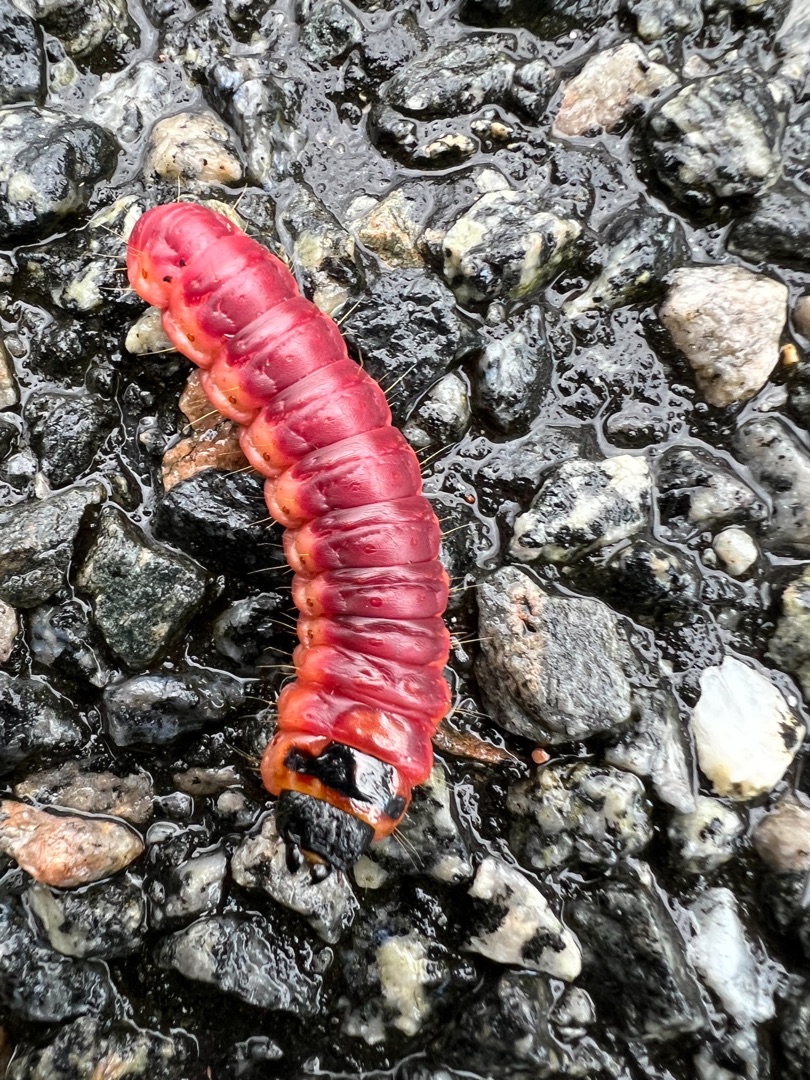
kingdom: Animalia
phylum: Arthropoda
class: Insecta
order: Lepidoptera
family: Cossidae
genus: Cossus
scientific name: Cossus cossus
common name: Pileborer
